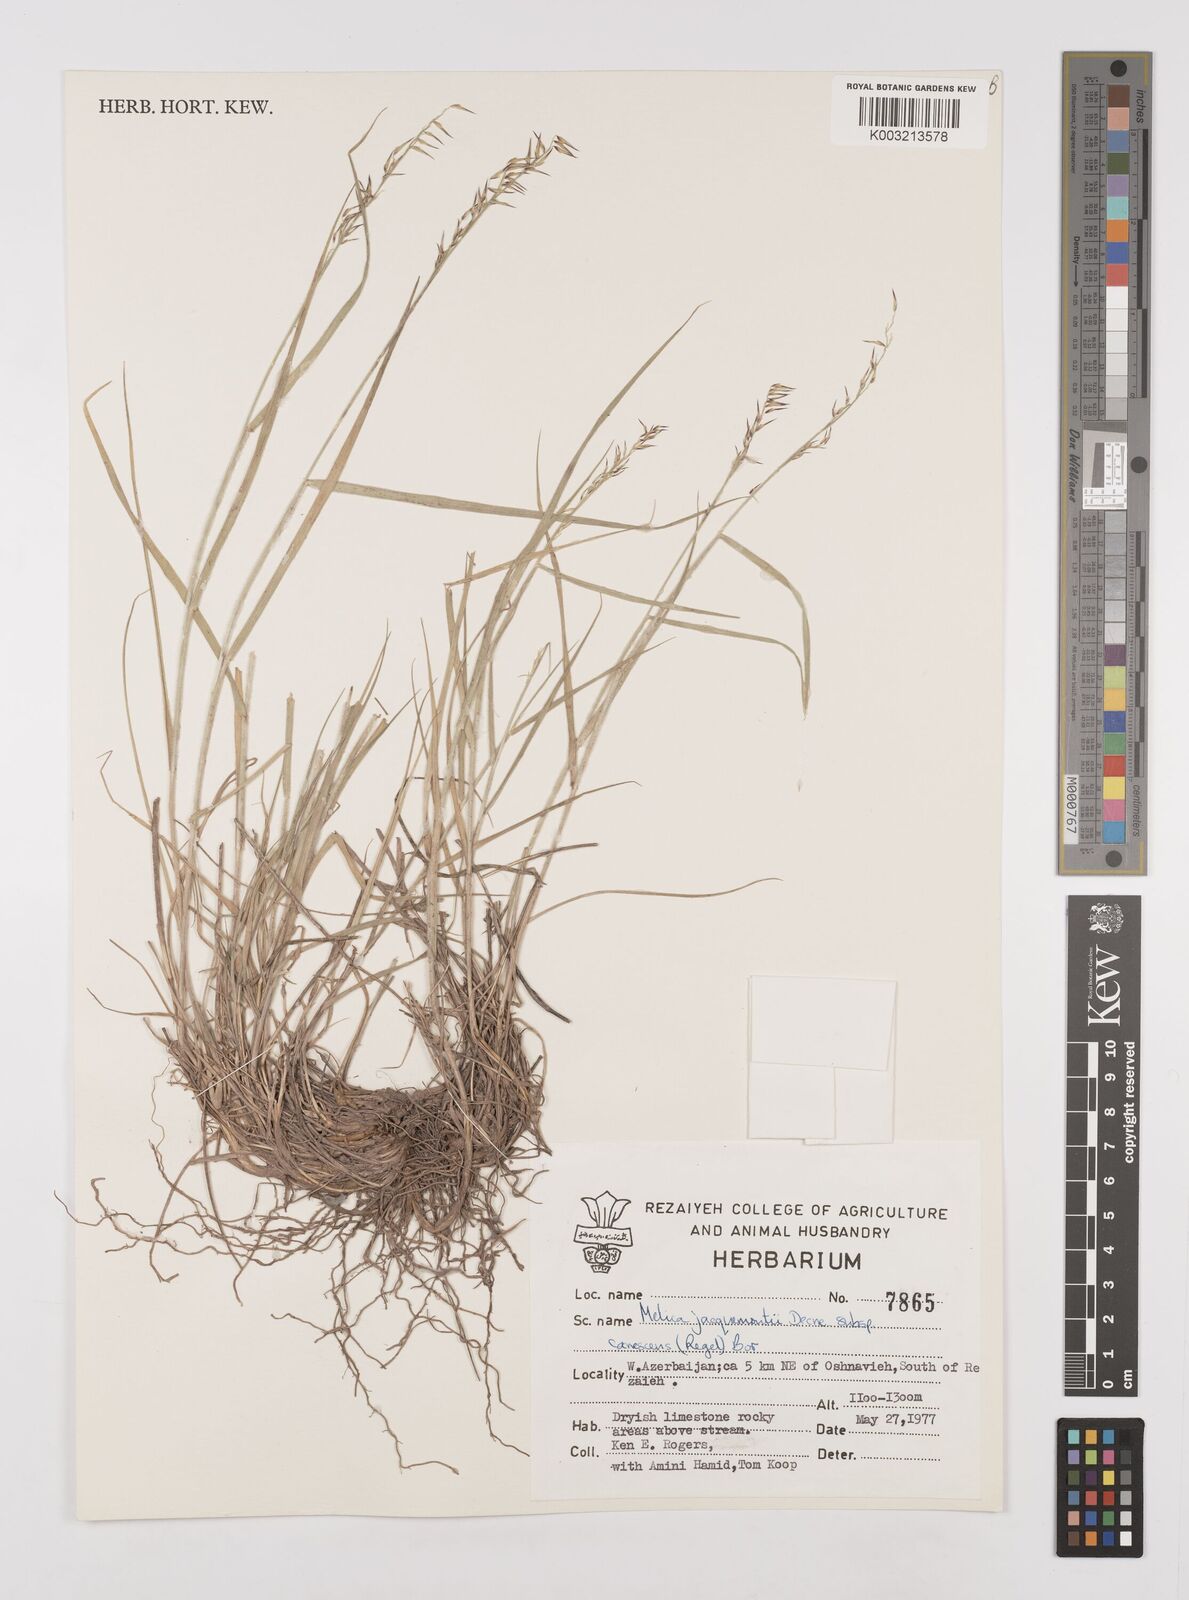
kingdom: Plantae
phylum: Tracheophyta
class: Liliopsida
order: Poales
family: Poaceae
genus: Melica
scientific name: Melica persica
